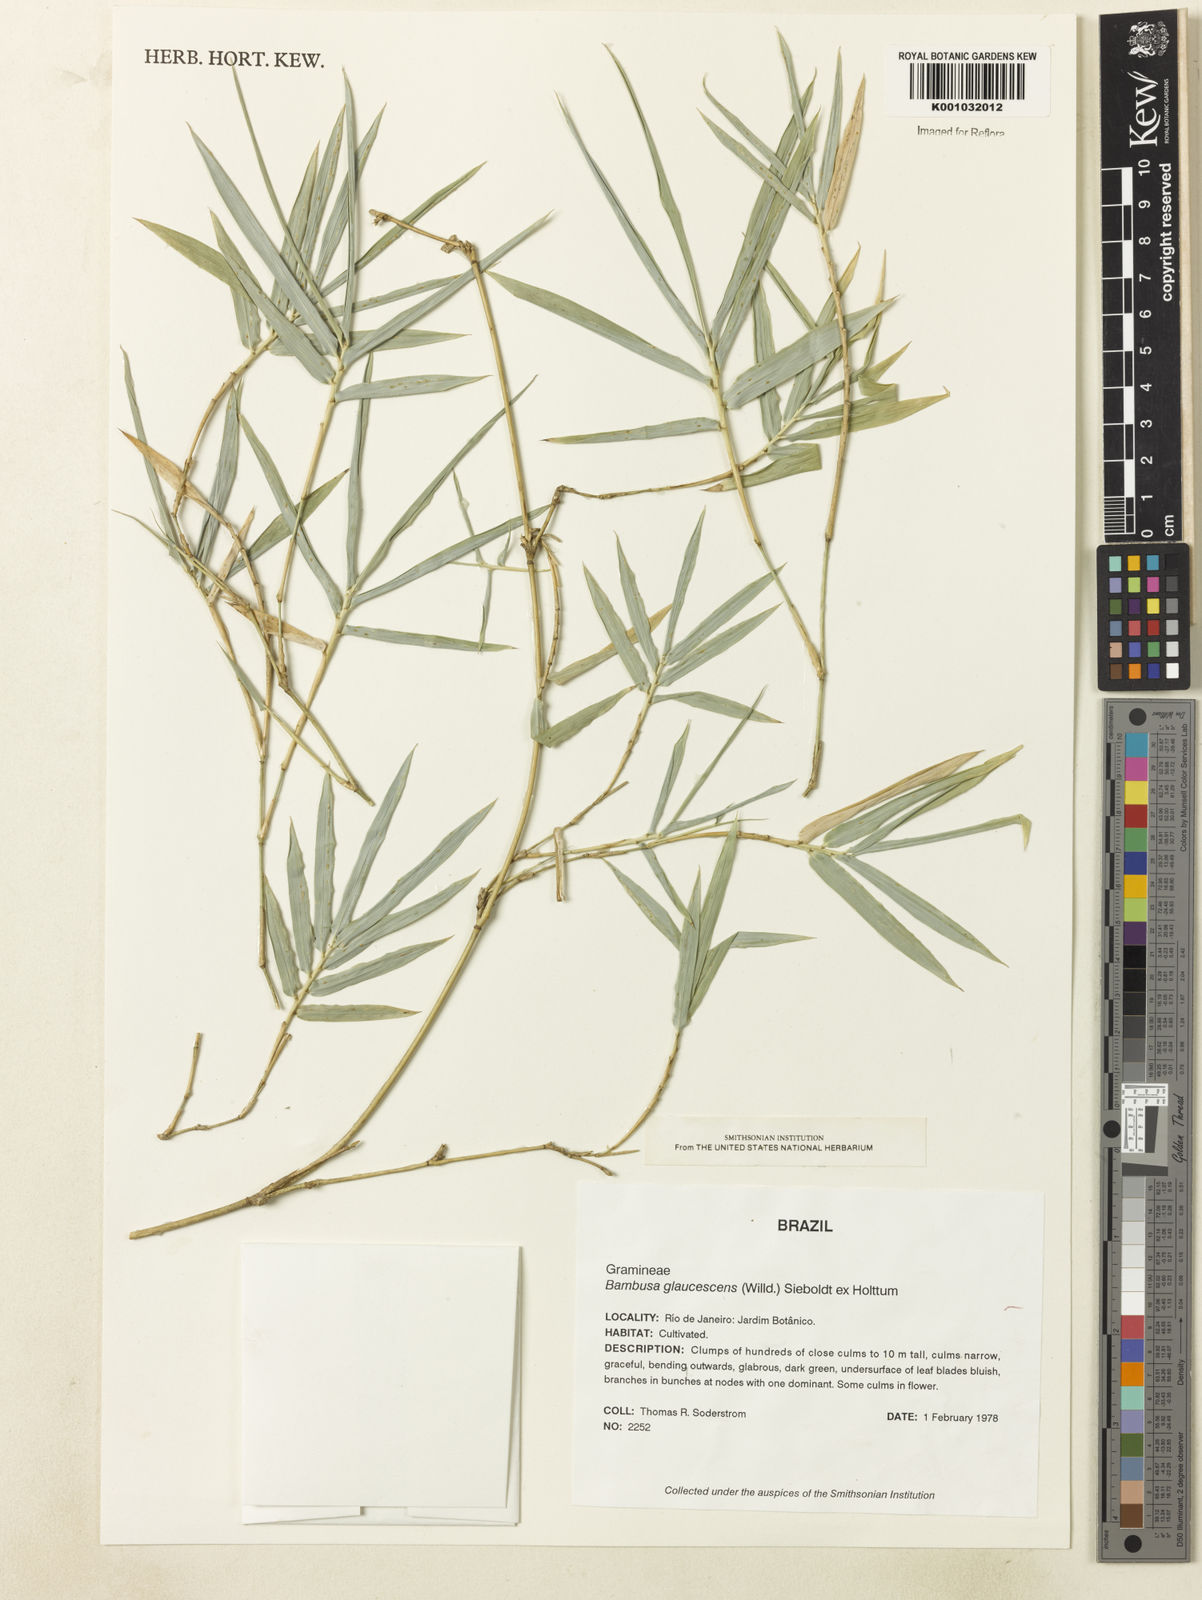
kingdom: Plantae
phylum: Tracheophyta
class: Liliopsida
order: Poales
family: Poaceae
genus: Bambusa
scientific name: Bambusa multiplex
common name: Hedge bamboo
